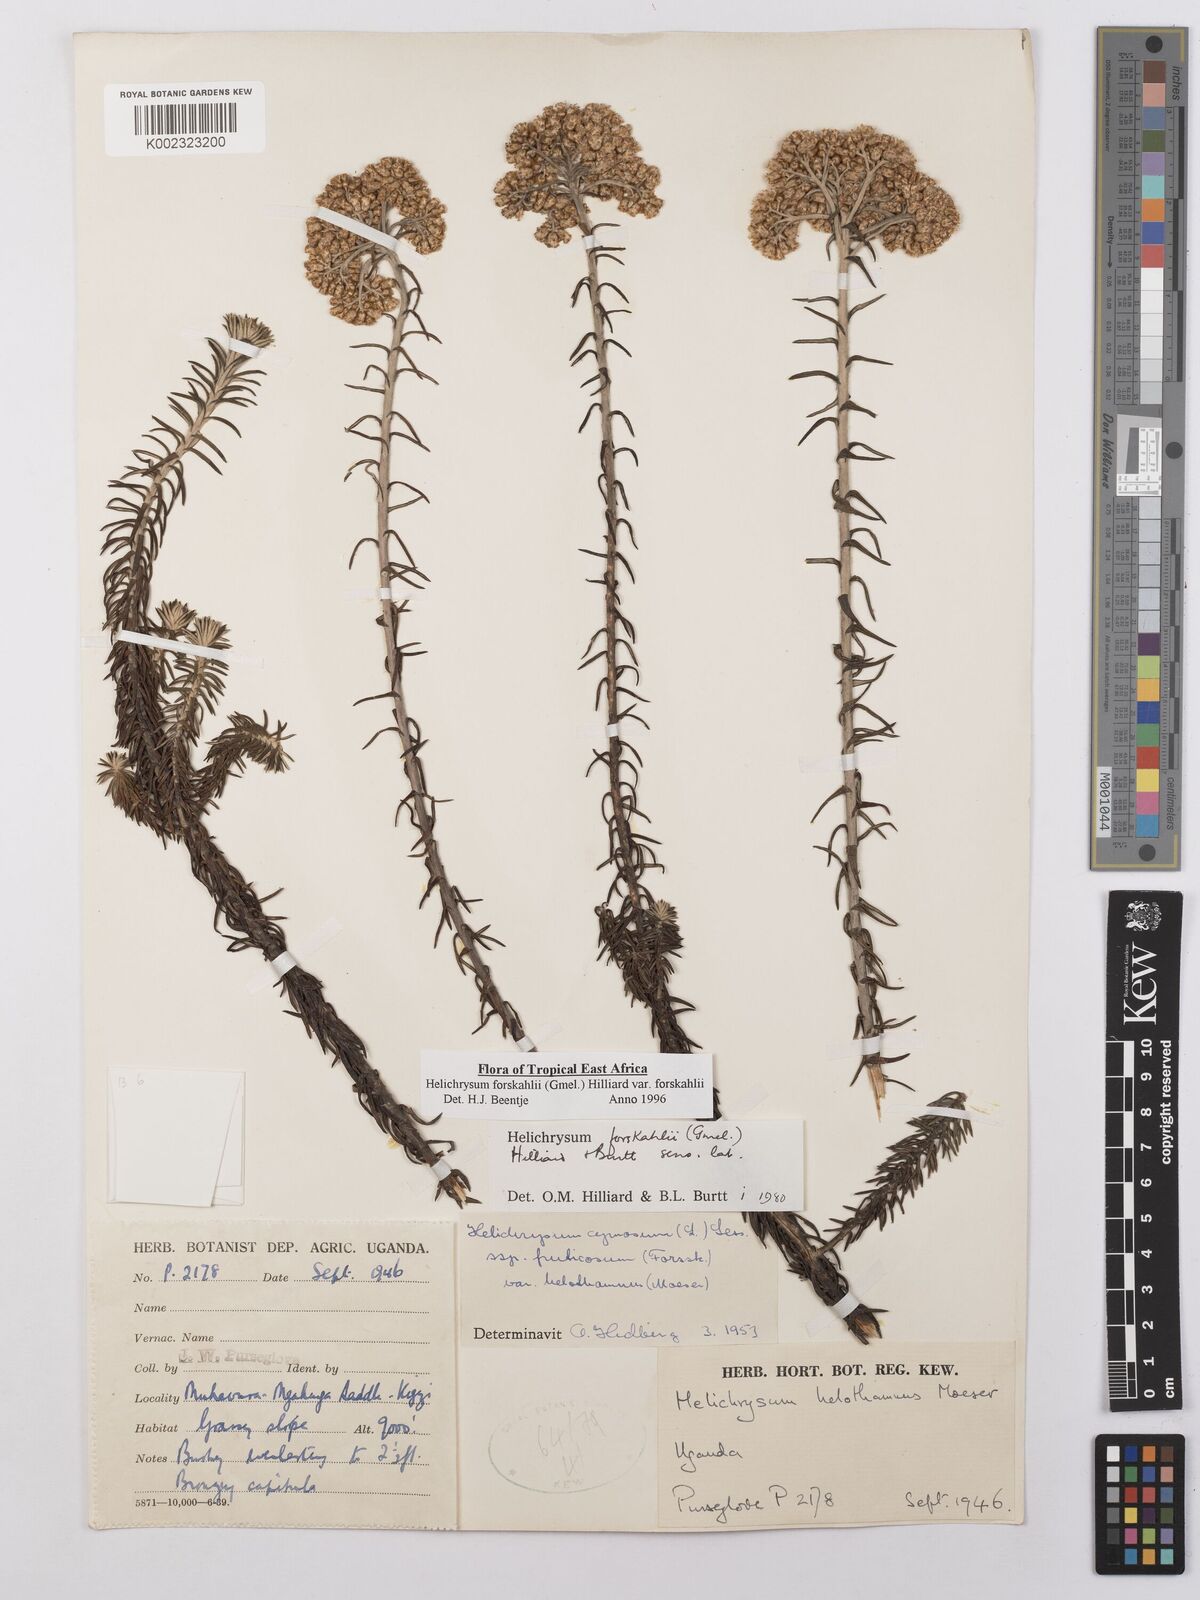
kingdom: Plantae
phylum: Tracheophyta
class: Magnoliopsida
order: Asterales
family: Asteraceae
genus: Helichrysum
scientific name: Helichrysum forskahlii
